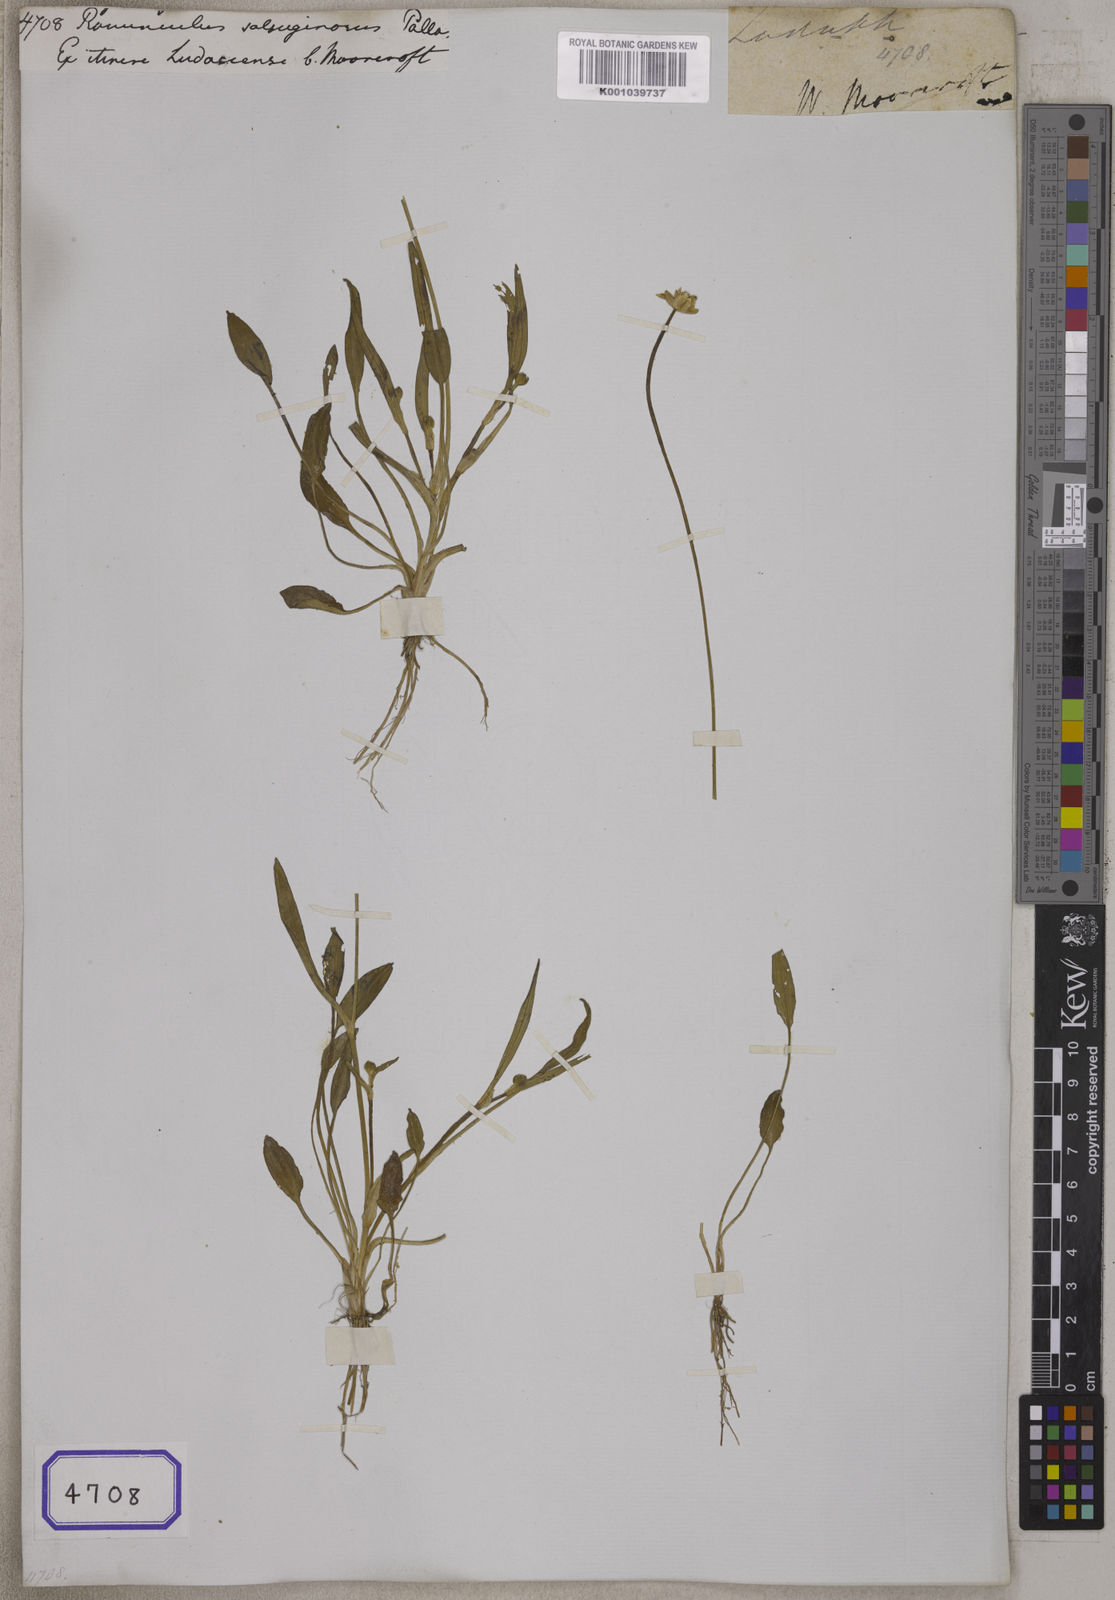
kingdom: Plantae
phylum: Tracheophyta
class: Magnoliopsida
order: Ranunculales
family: Ranunculaceae
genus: Halerpestes
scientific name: Halerpestes sarmentosus
